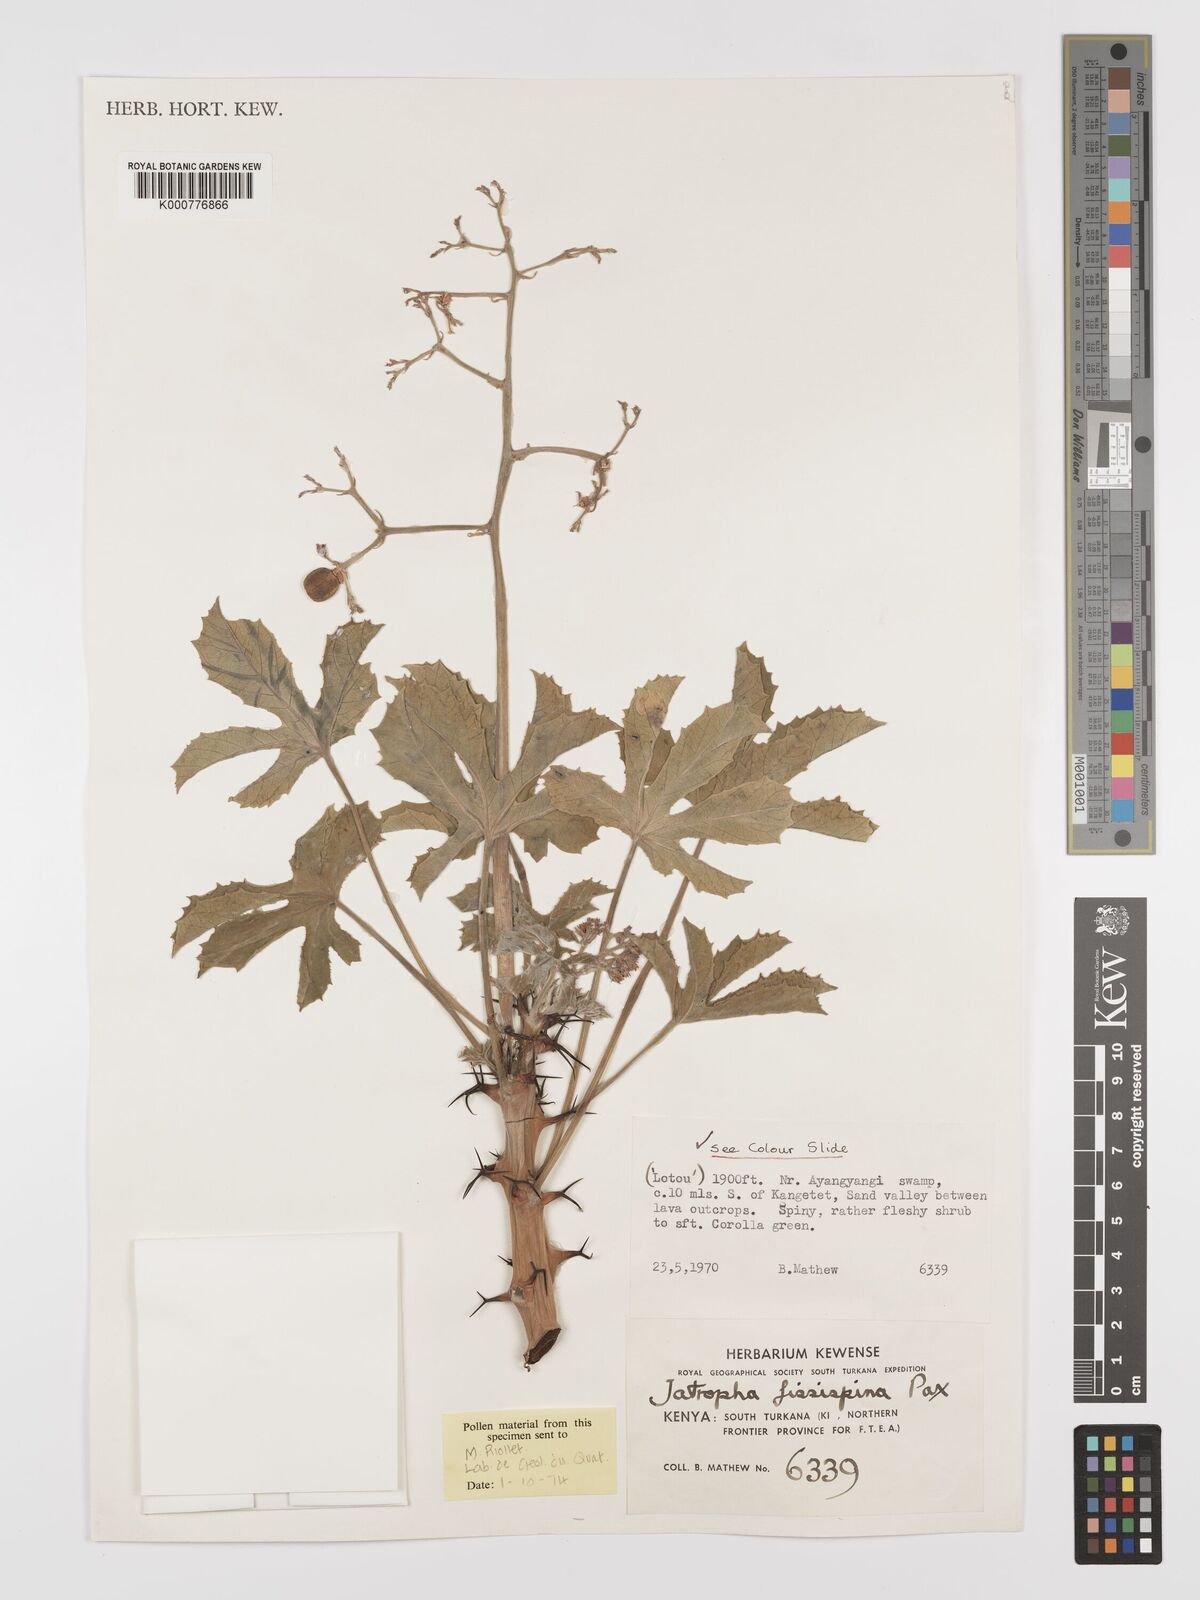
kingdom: Plantae
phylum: Tracheophyta
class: Magnoliopsida
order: Malpighiales
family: Euphorbiaceae
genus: Jatropha
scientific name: Jatropha ellenbeckii
